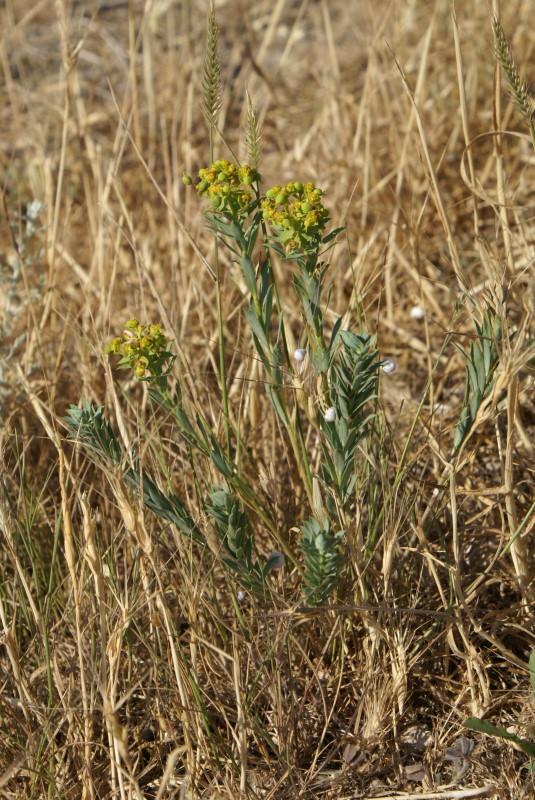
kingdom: Plantae
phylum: Tracheophyta
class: Magnoliopsida
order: Malpighiales
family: Euphorbiaceae
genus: Euphorbia
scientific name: Euphorbia stepposa
